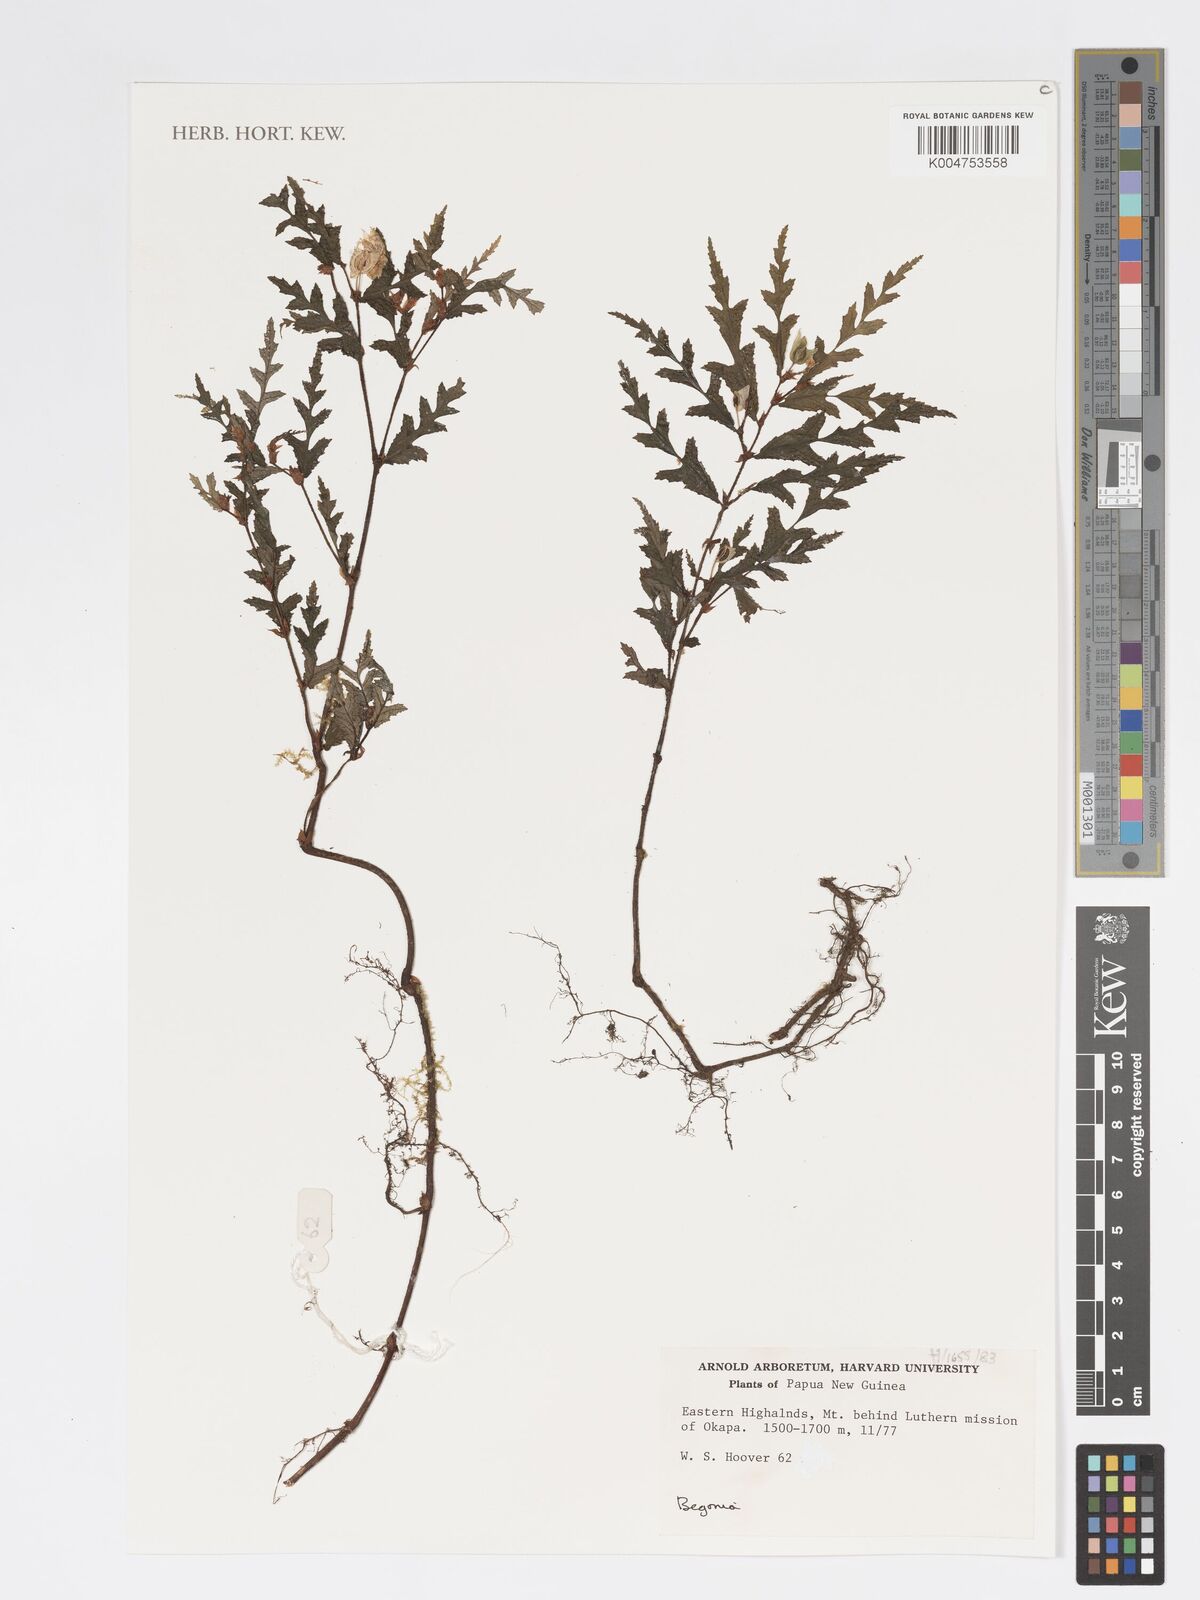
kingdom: Plantae
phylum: Tracheophyta
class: Magnoliopsida
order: Cucurbitales
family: Begoniaceae
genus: Begonia
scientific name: Begonia asaroensis
